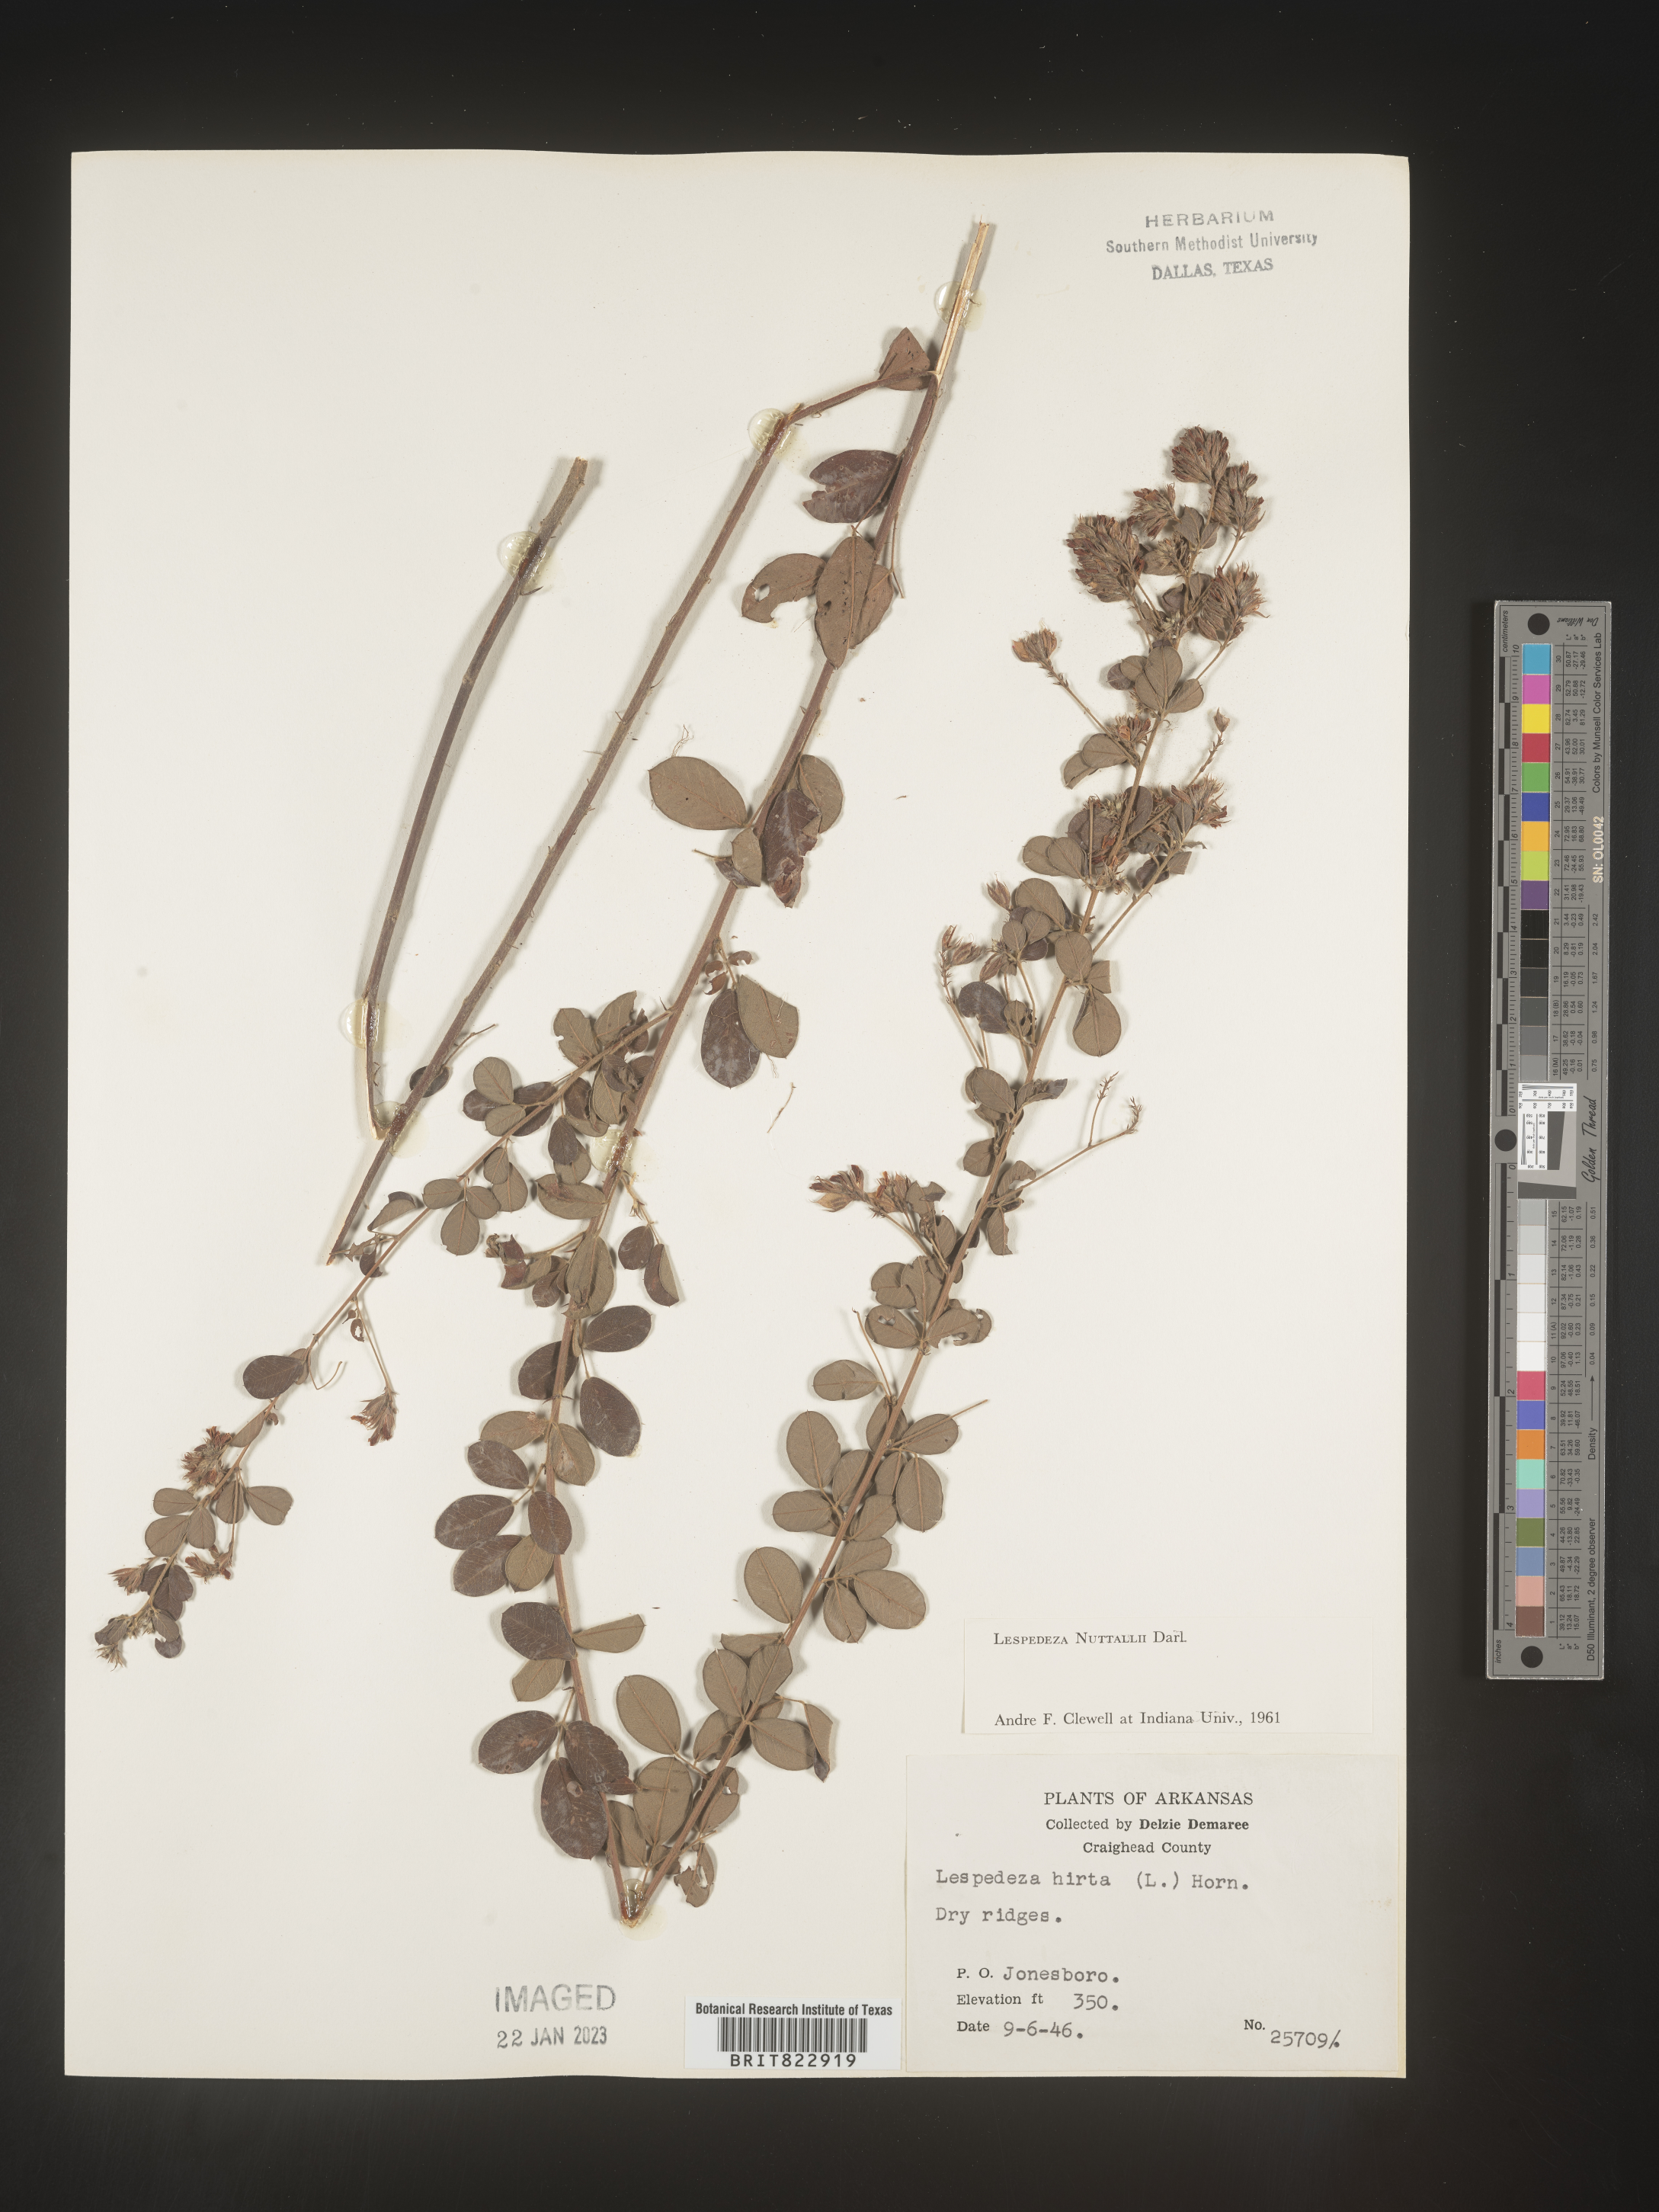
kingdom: Plantae
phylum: Tracheophyta
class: Magnoliopsida
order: Fabales
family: Fabaceae
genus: Lespedeza
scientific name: Lespedeza
